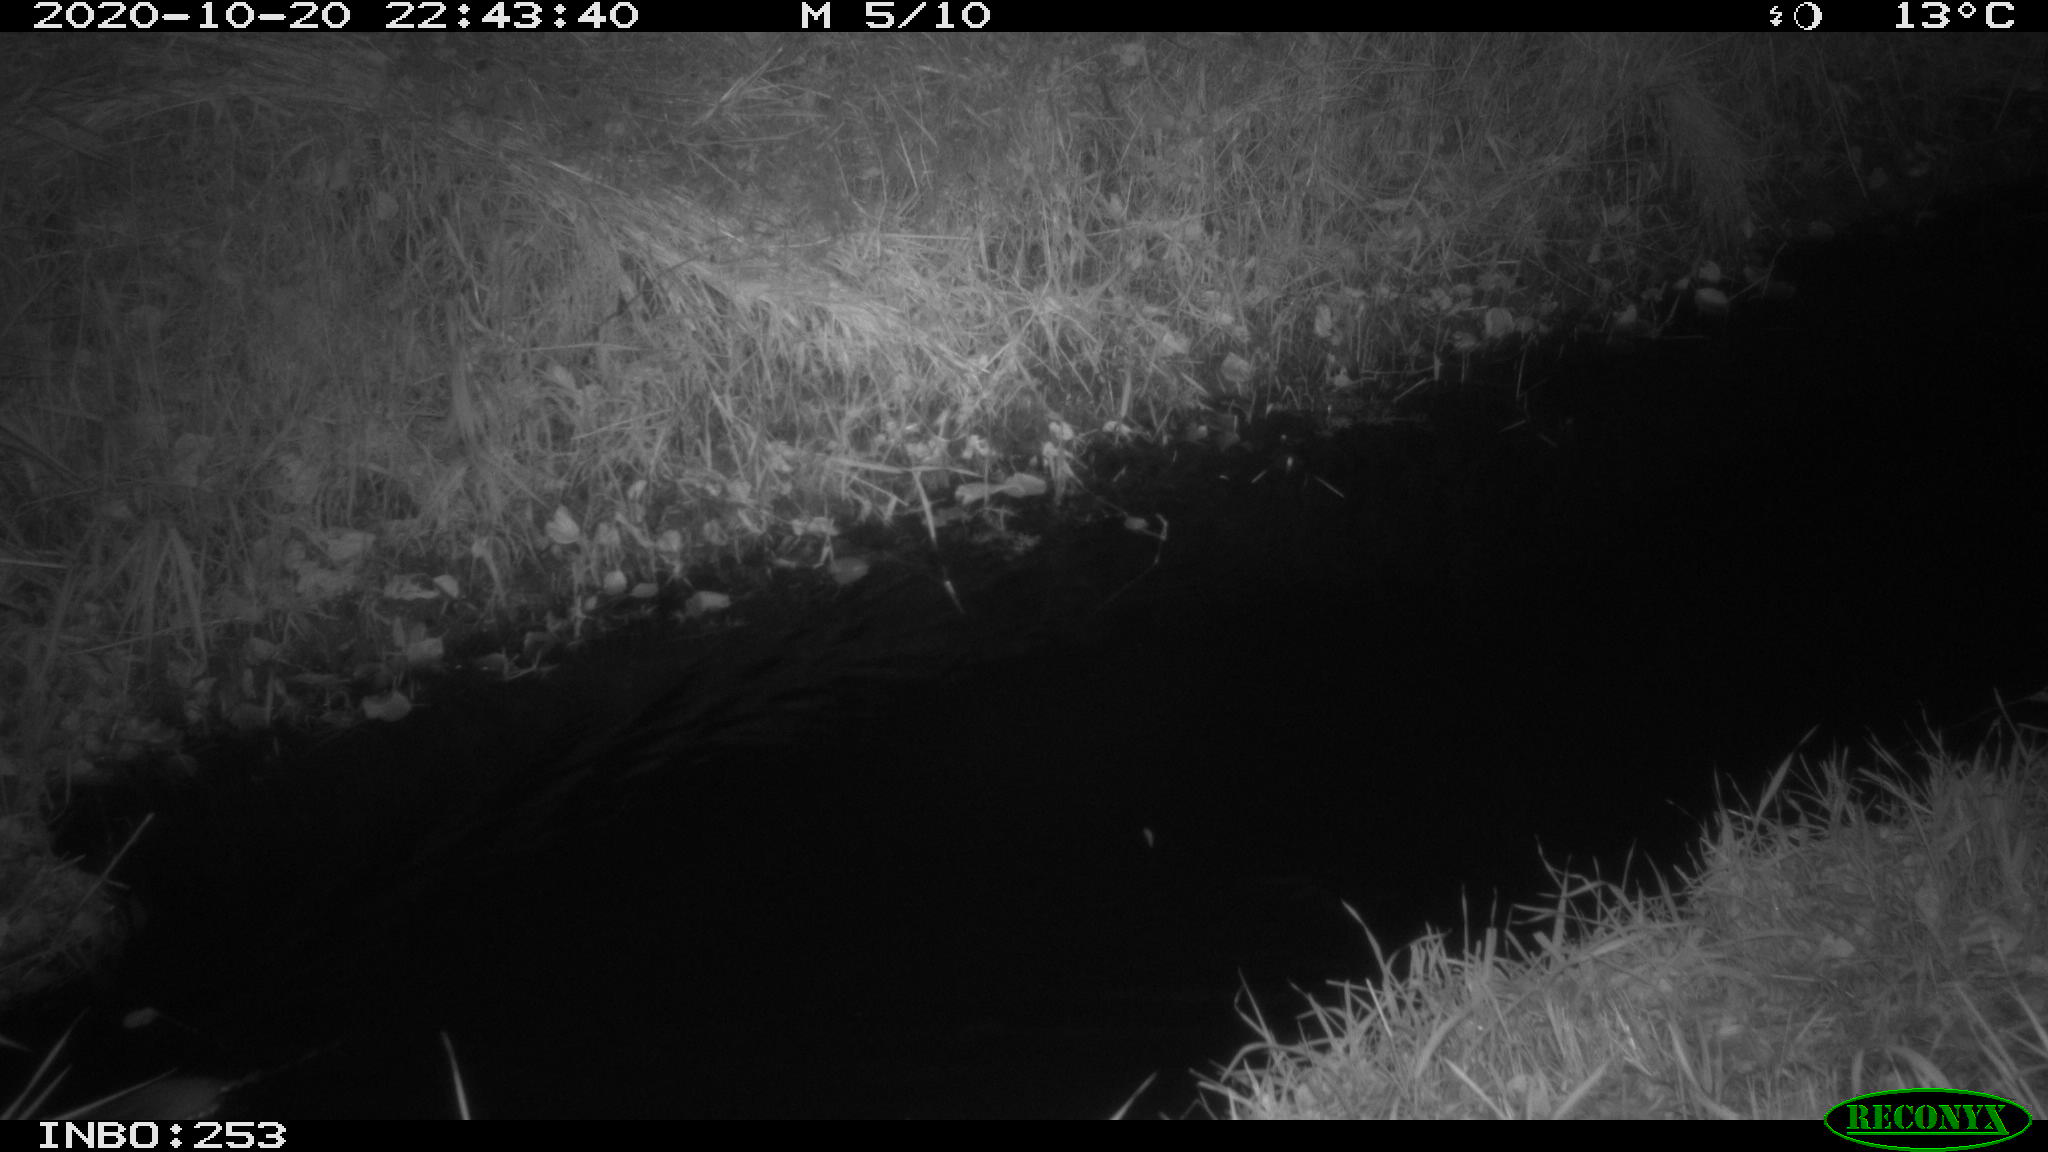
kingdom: Animalia
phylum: Chordata
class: Mammalia
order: Rodentia
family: Muridae
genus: Rattus
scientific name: Rattus norvegicus
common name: Brown rat
